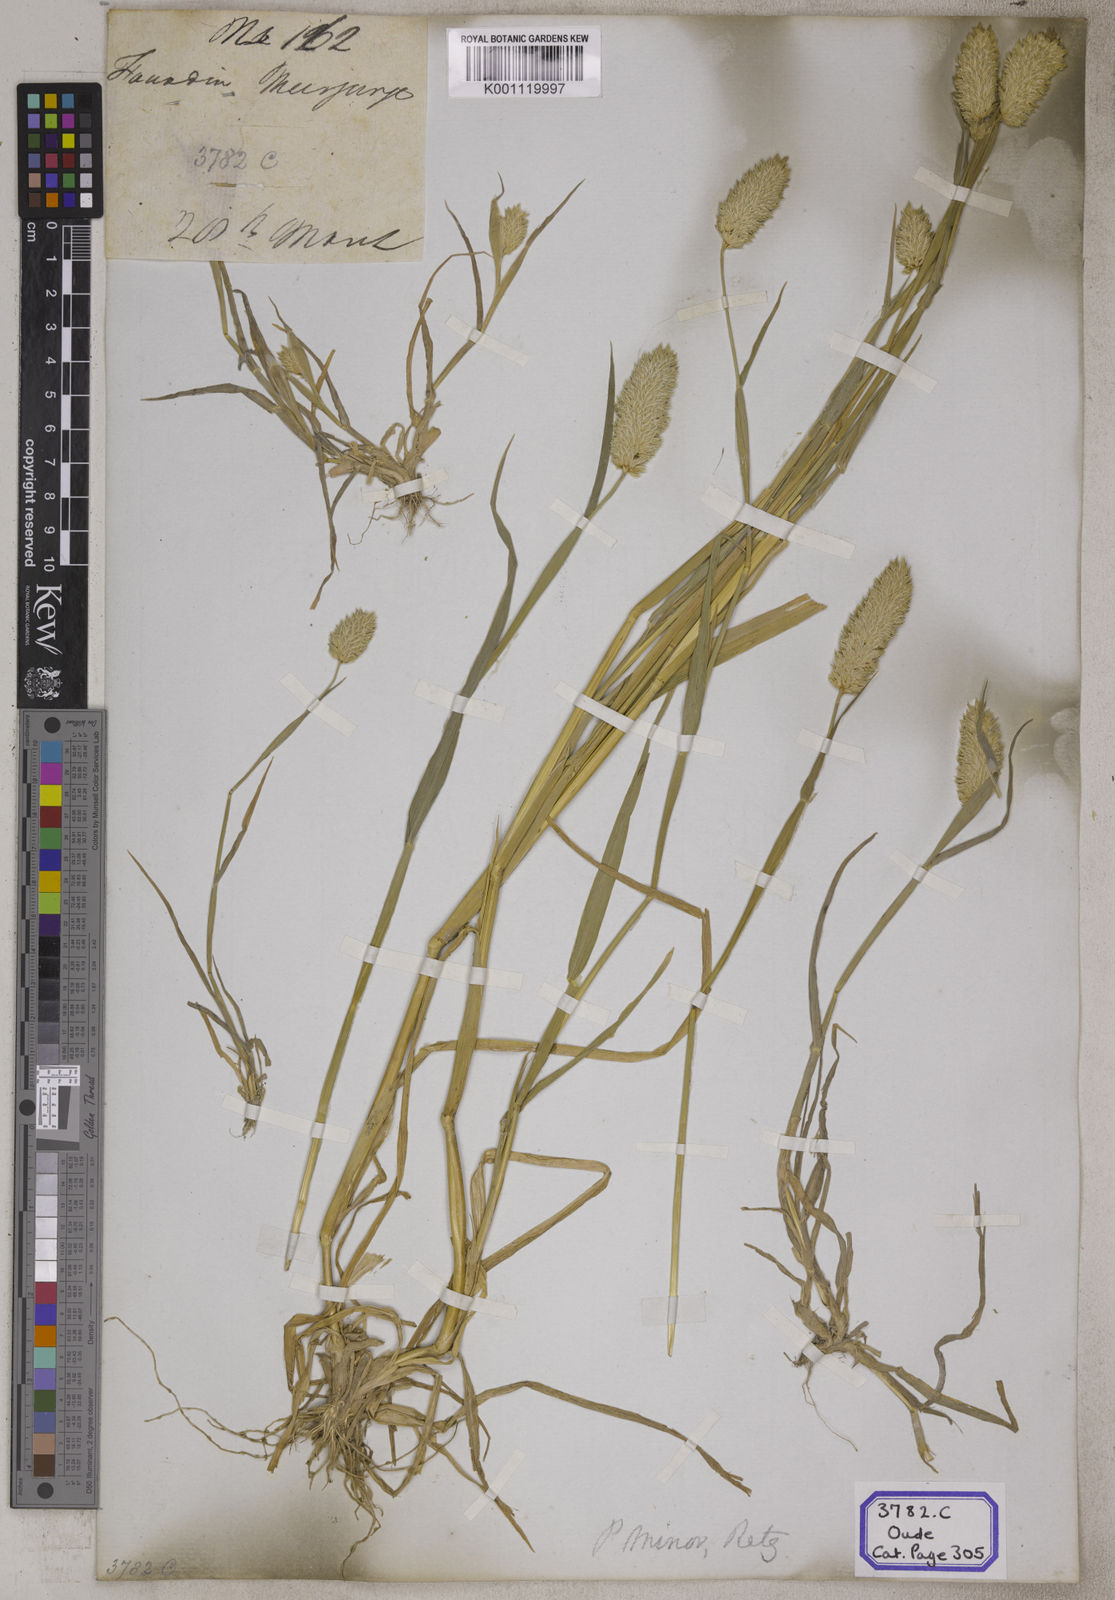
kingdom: Plantae
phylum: Tracheophyta
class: Liliopsida
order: Poales
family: Poaceae
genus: Phalaris
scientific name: Phalaris canariensis
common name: Annual canarygrass
